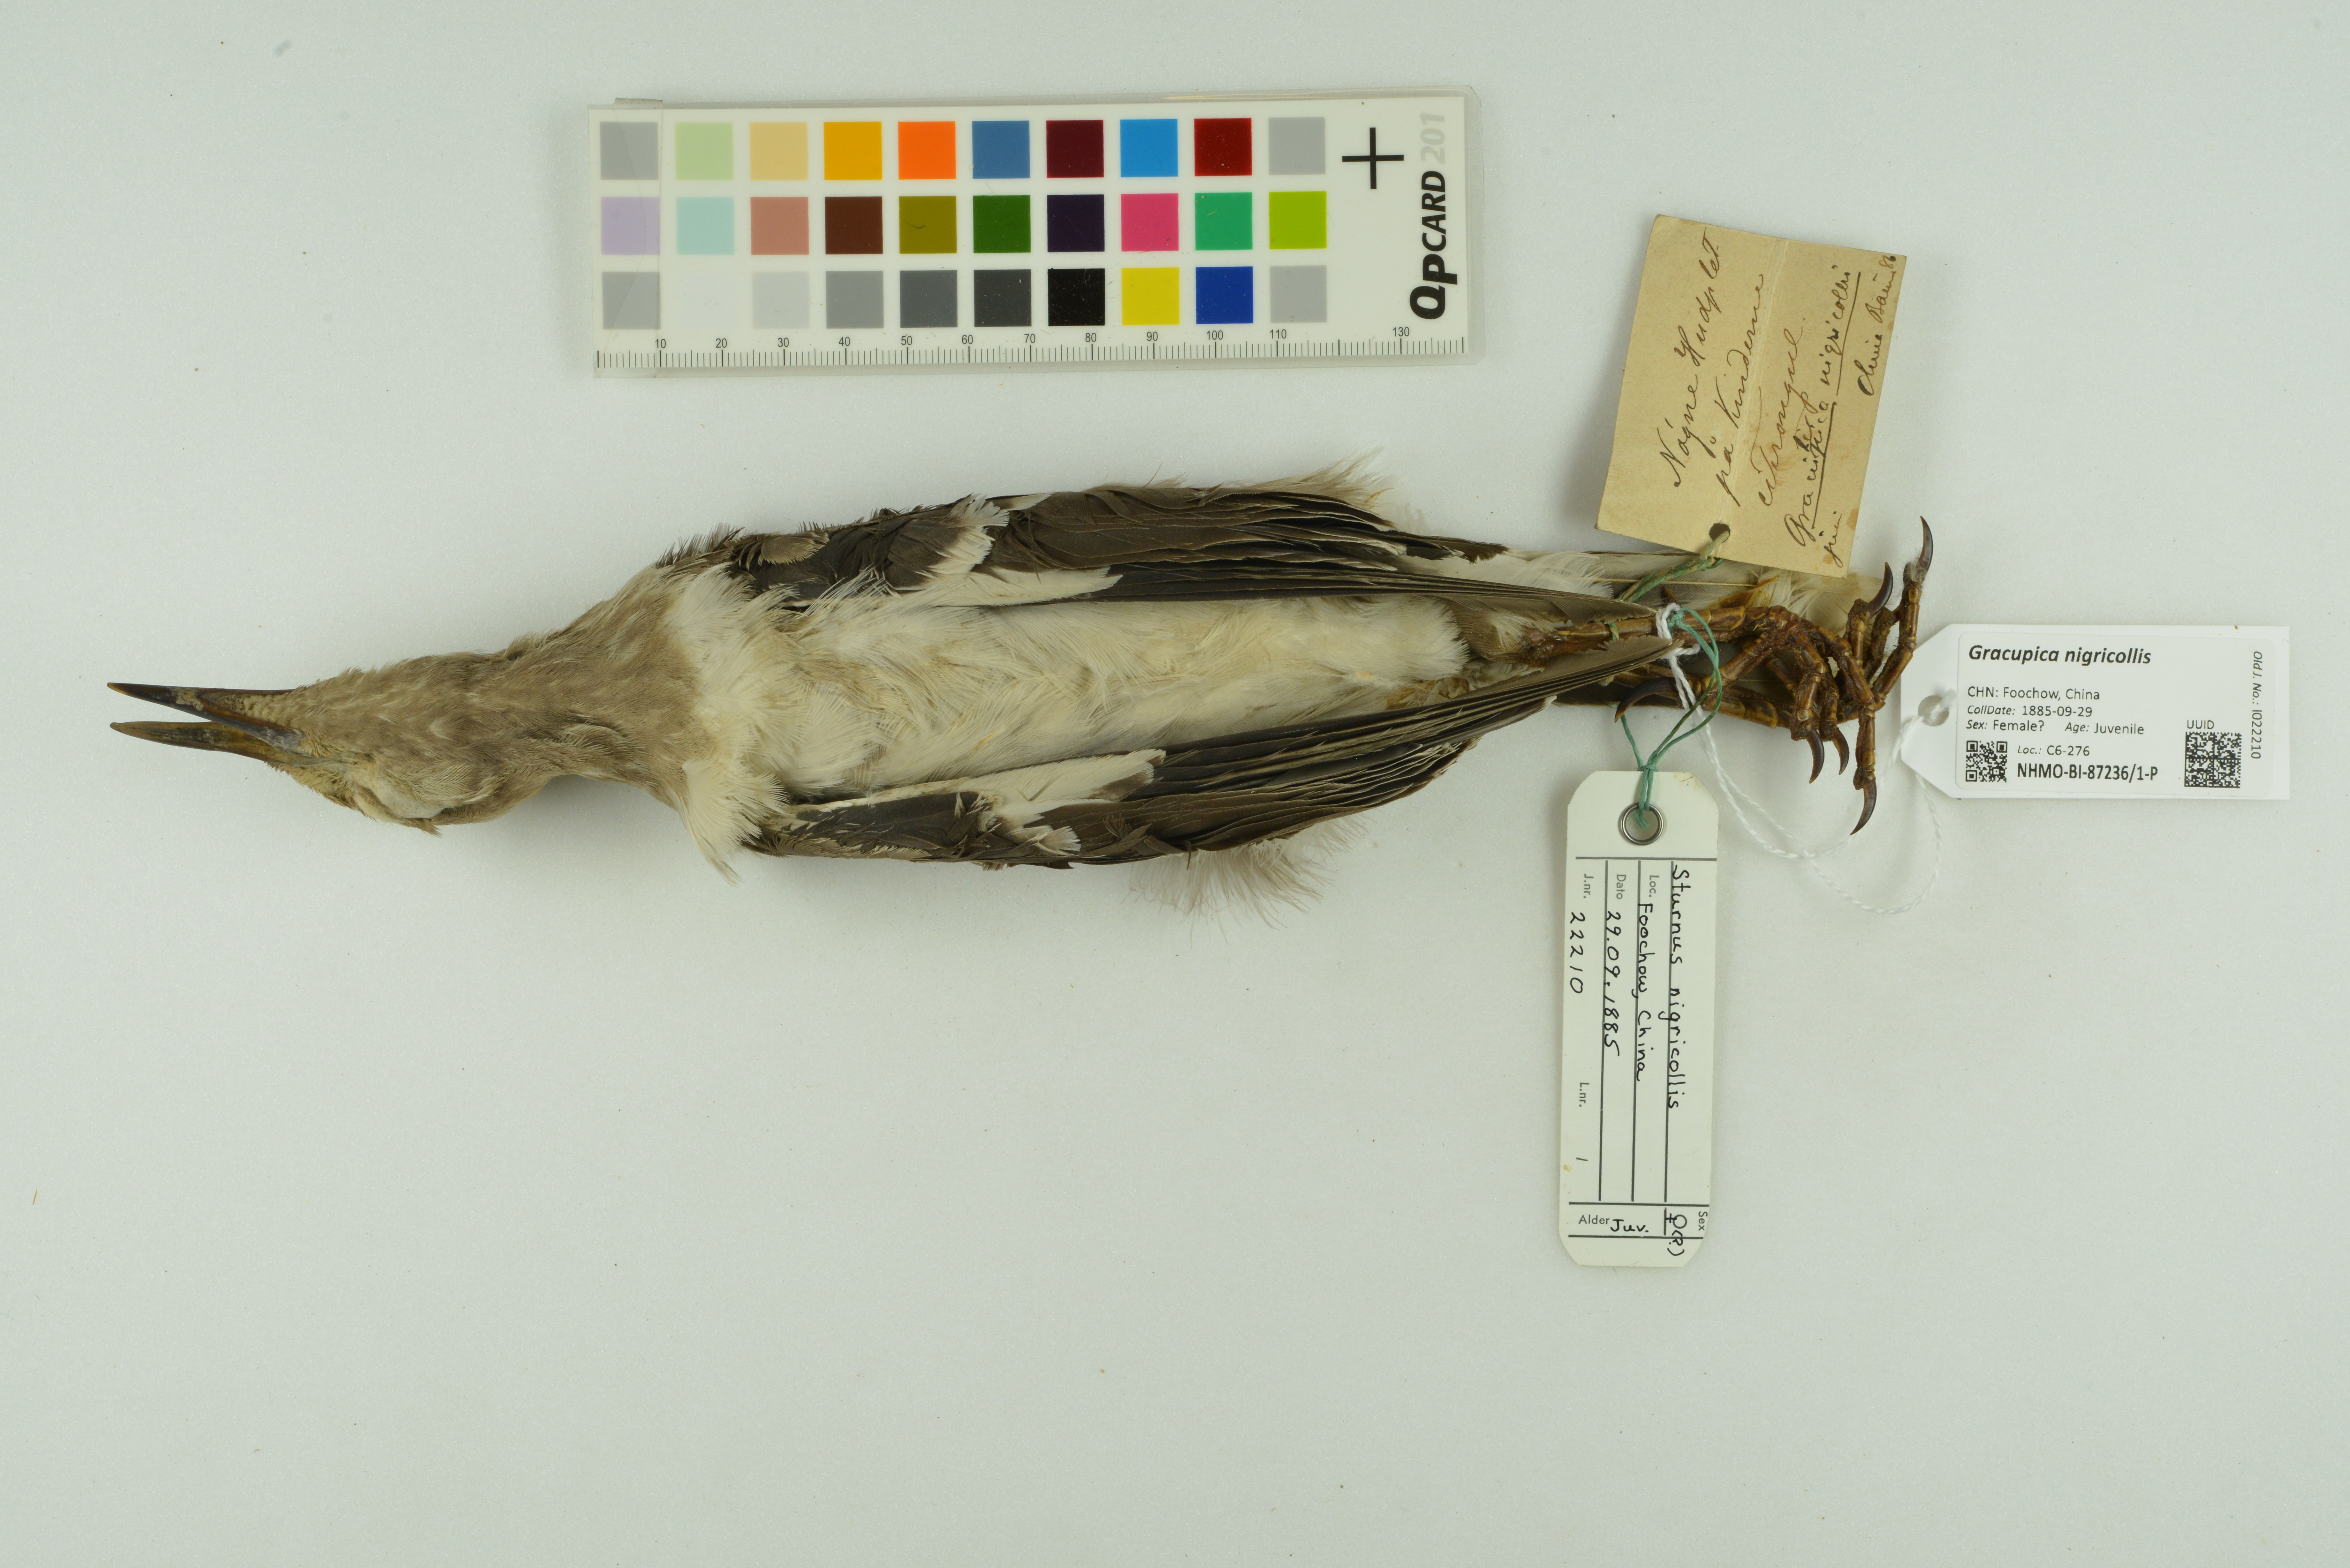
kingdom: Animalia
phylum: Chordata
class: Aves
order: Passeriformes
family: Sturnidae
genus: Gracupica
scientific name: Gracupica nigricollis
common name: Black-collared starling
